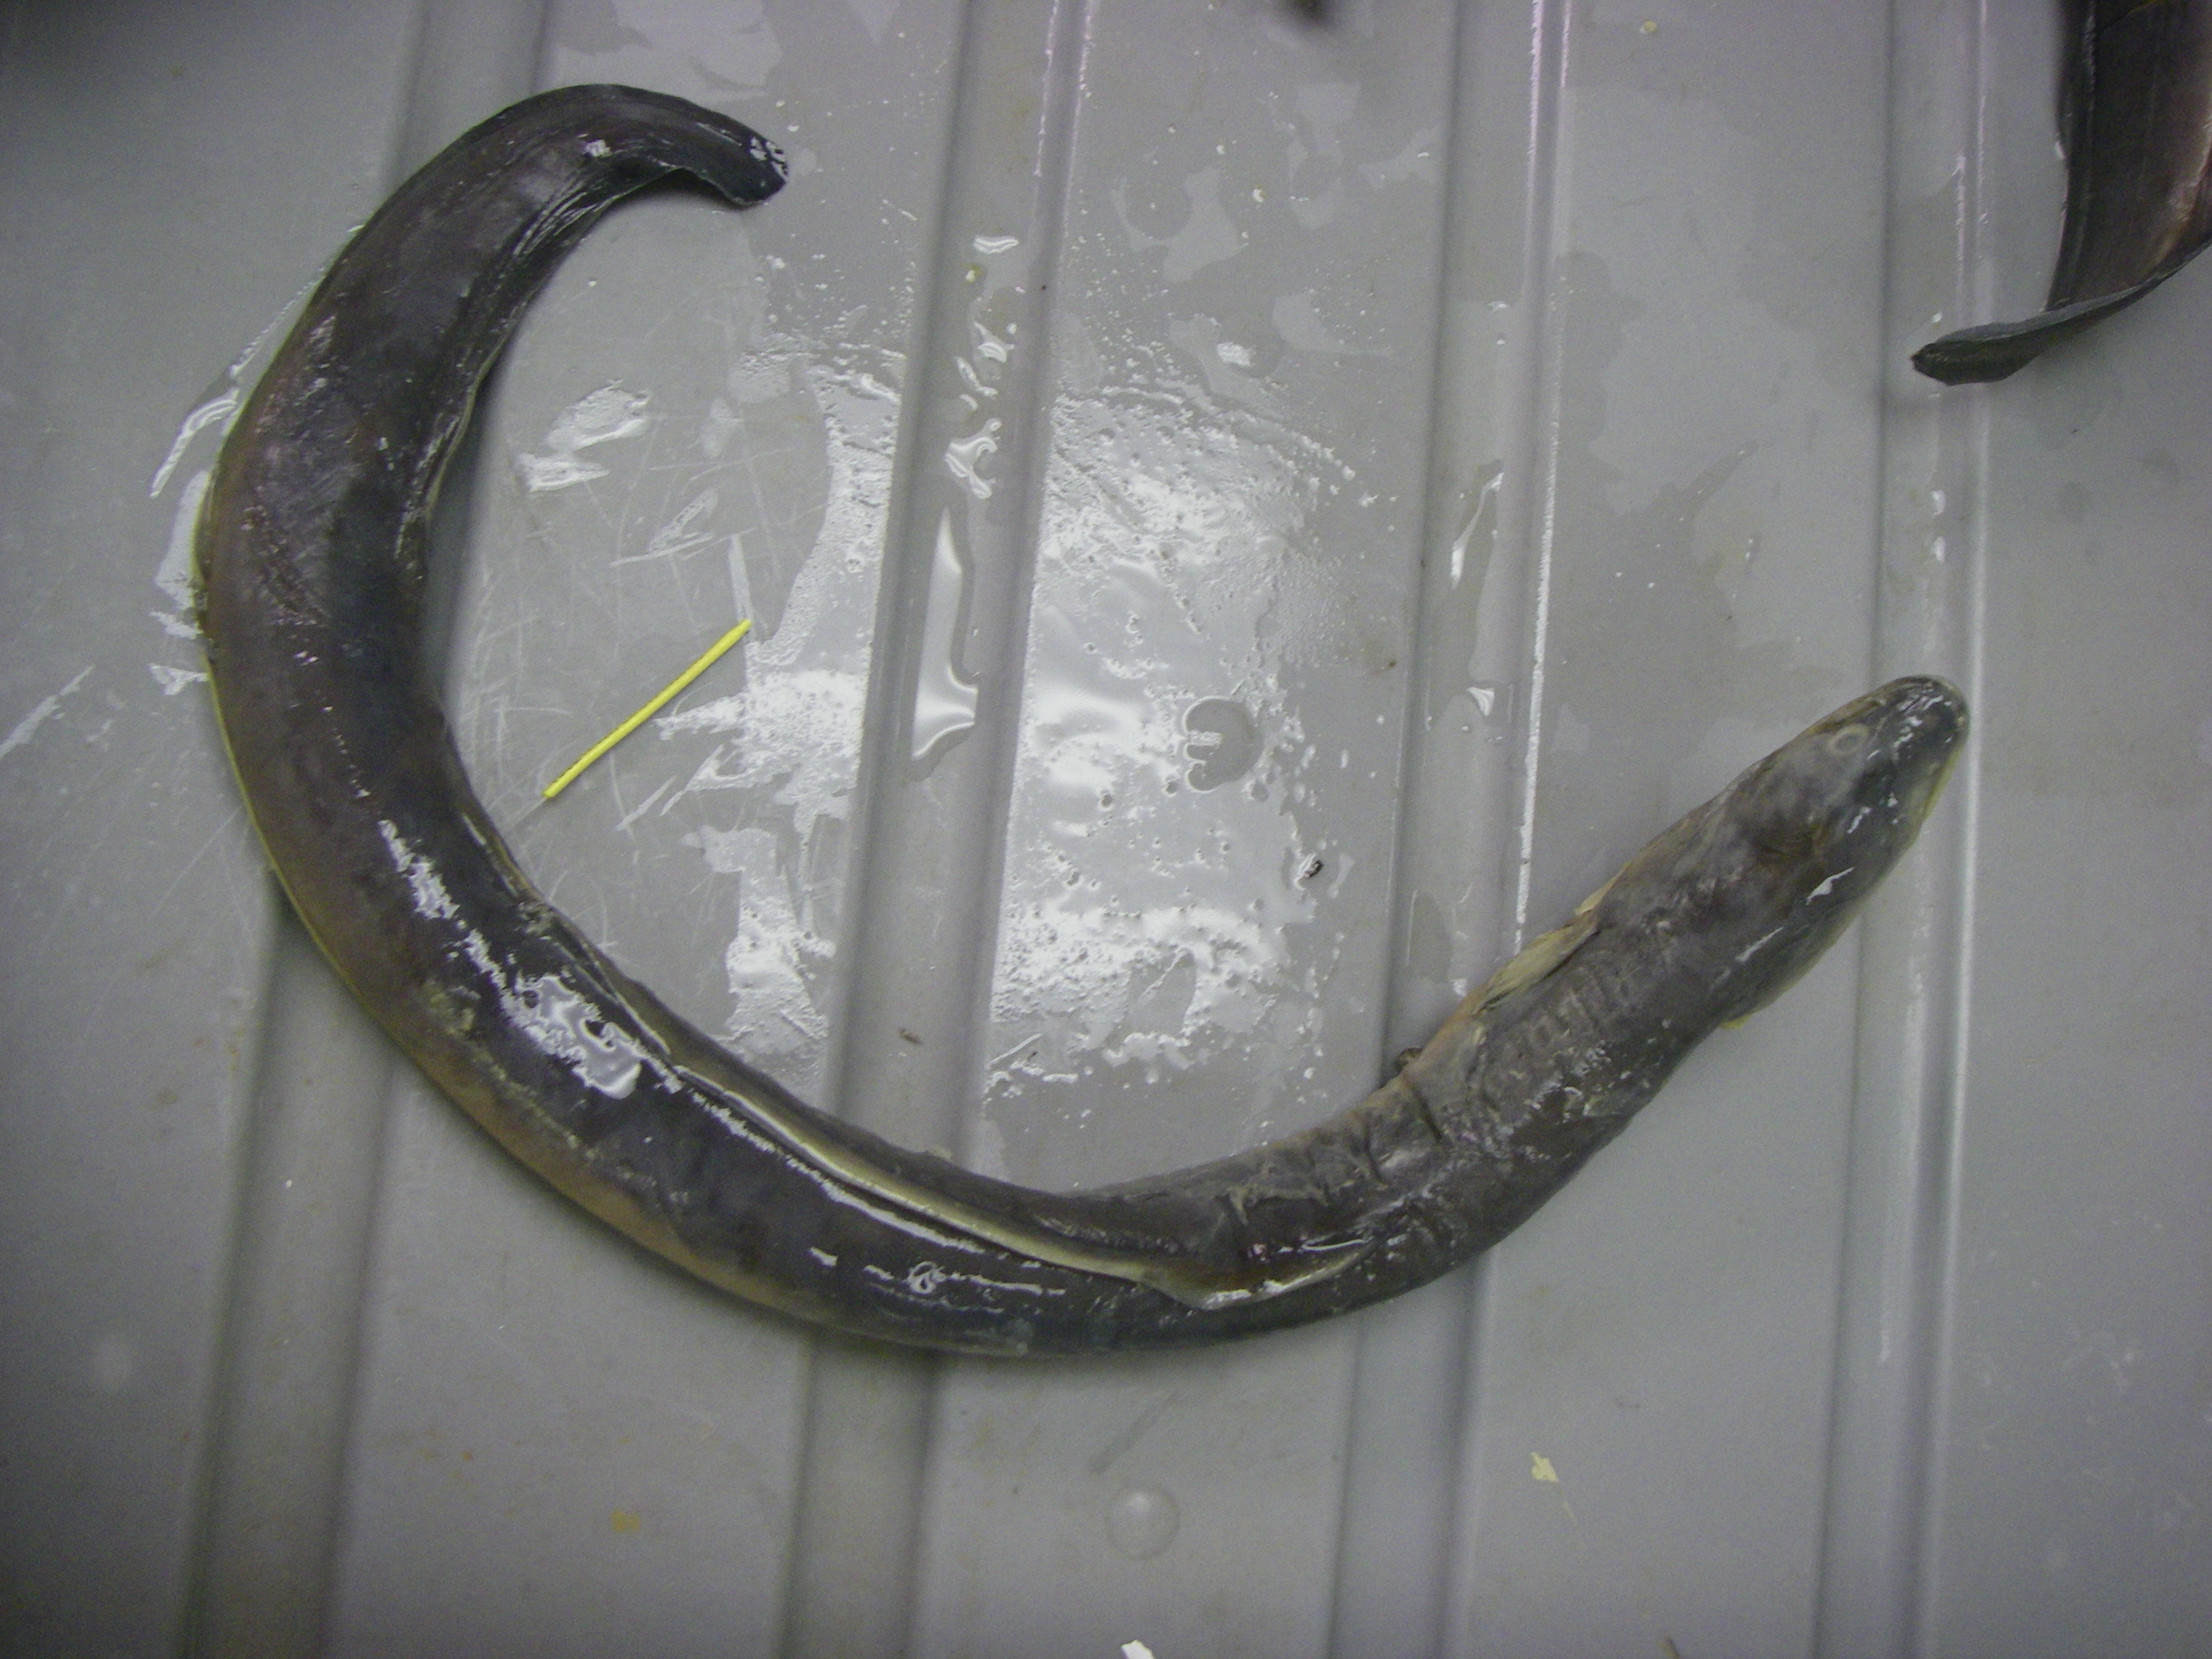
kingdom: Animalia
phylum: Chordata
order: Anguilliformes
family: Anguillidae
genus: Anguilla
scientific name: Anguilla mossambica
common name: African longfin eel
